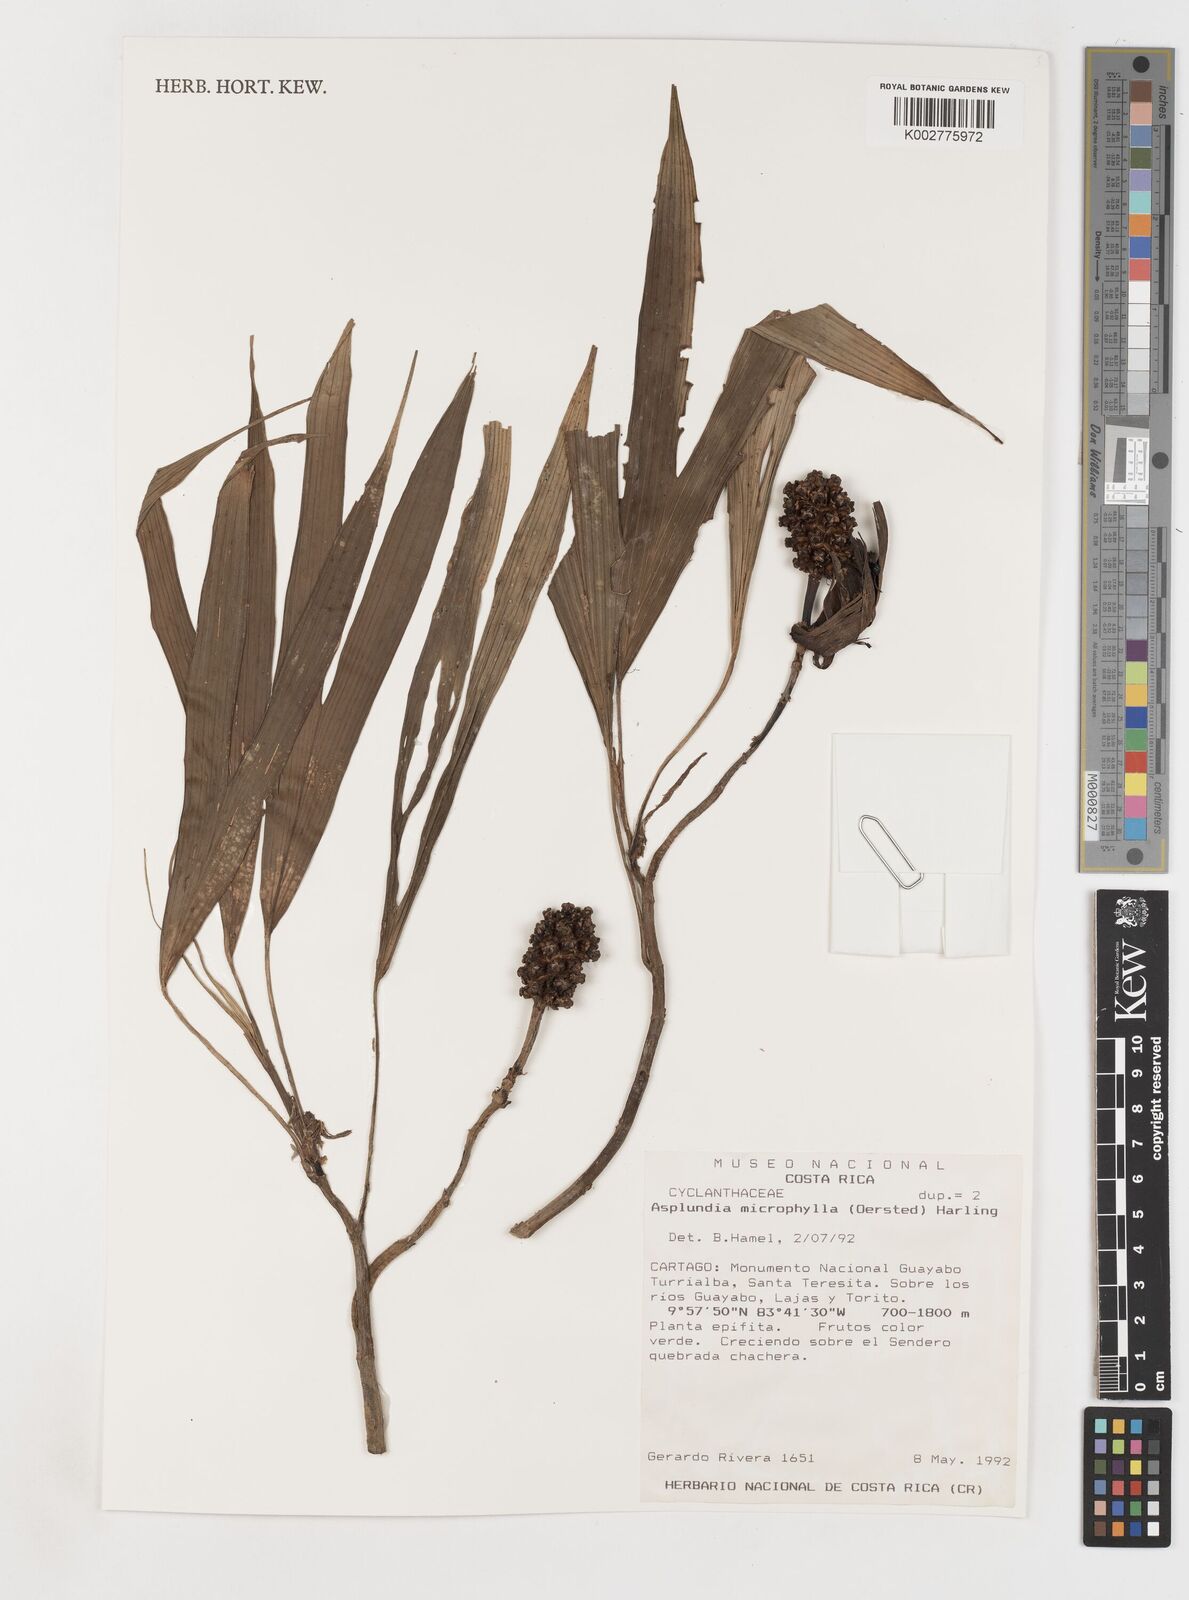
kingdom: Plantae
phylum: Tracheophyta
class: Liliopsida
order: Pandanales
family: Cyclanthaceae
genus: Asplundia
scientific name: Asplundia microphylla
